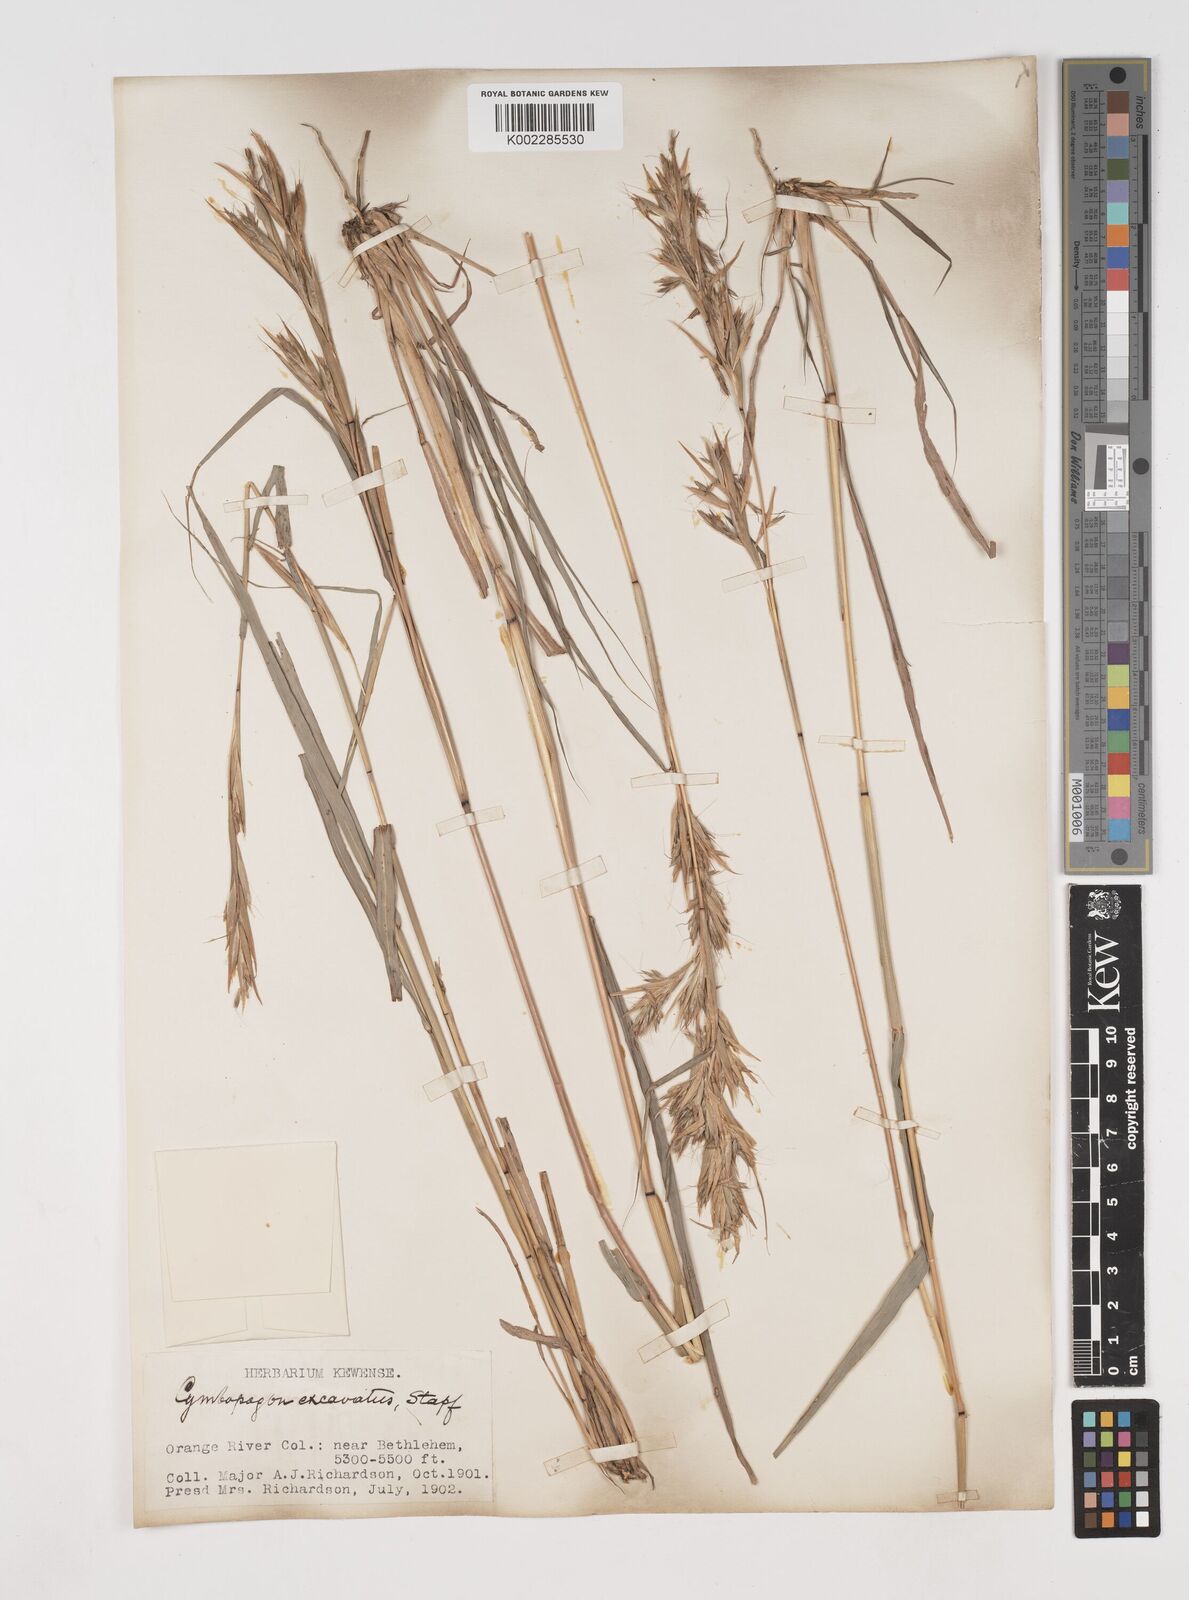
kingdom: Plantae
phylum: Tracheophyta
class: Liliopsida
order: Poales
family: Poaceae
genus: Cymbopogon
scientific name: Cymbopogon caesius
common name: Kachi grass
